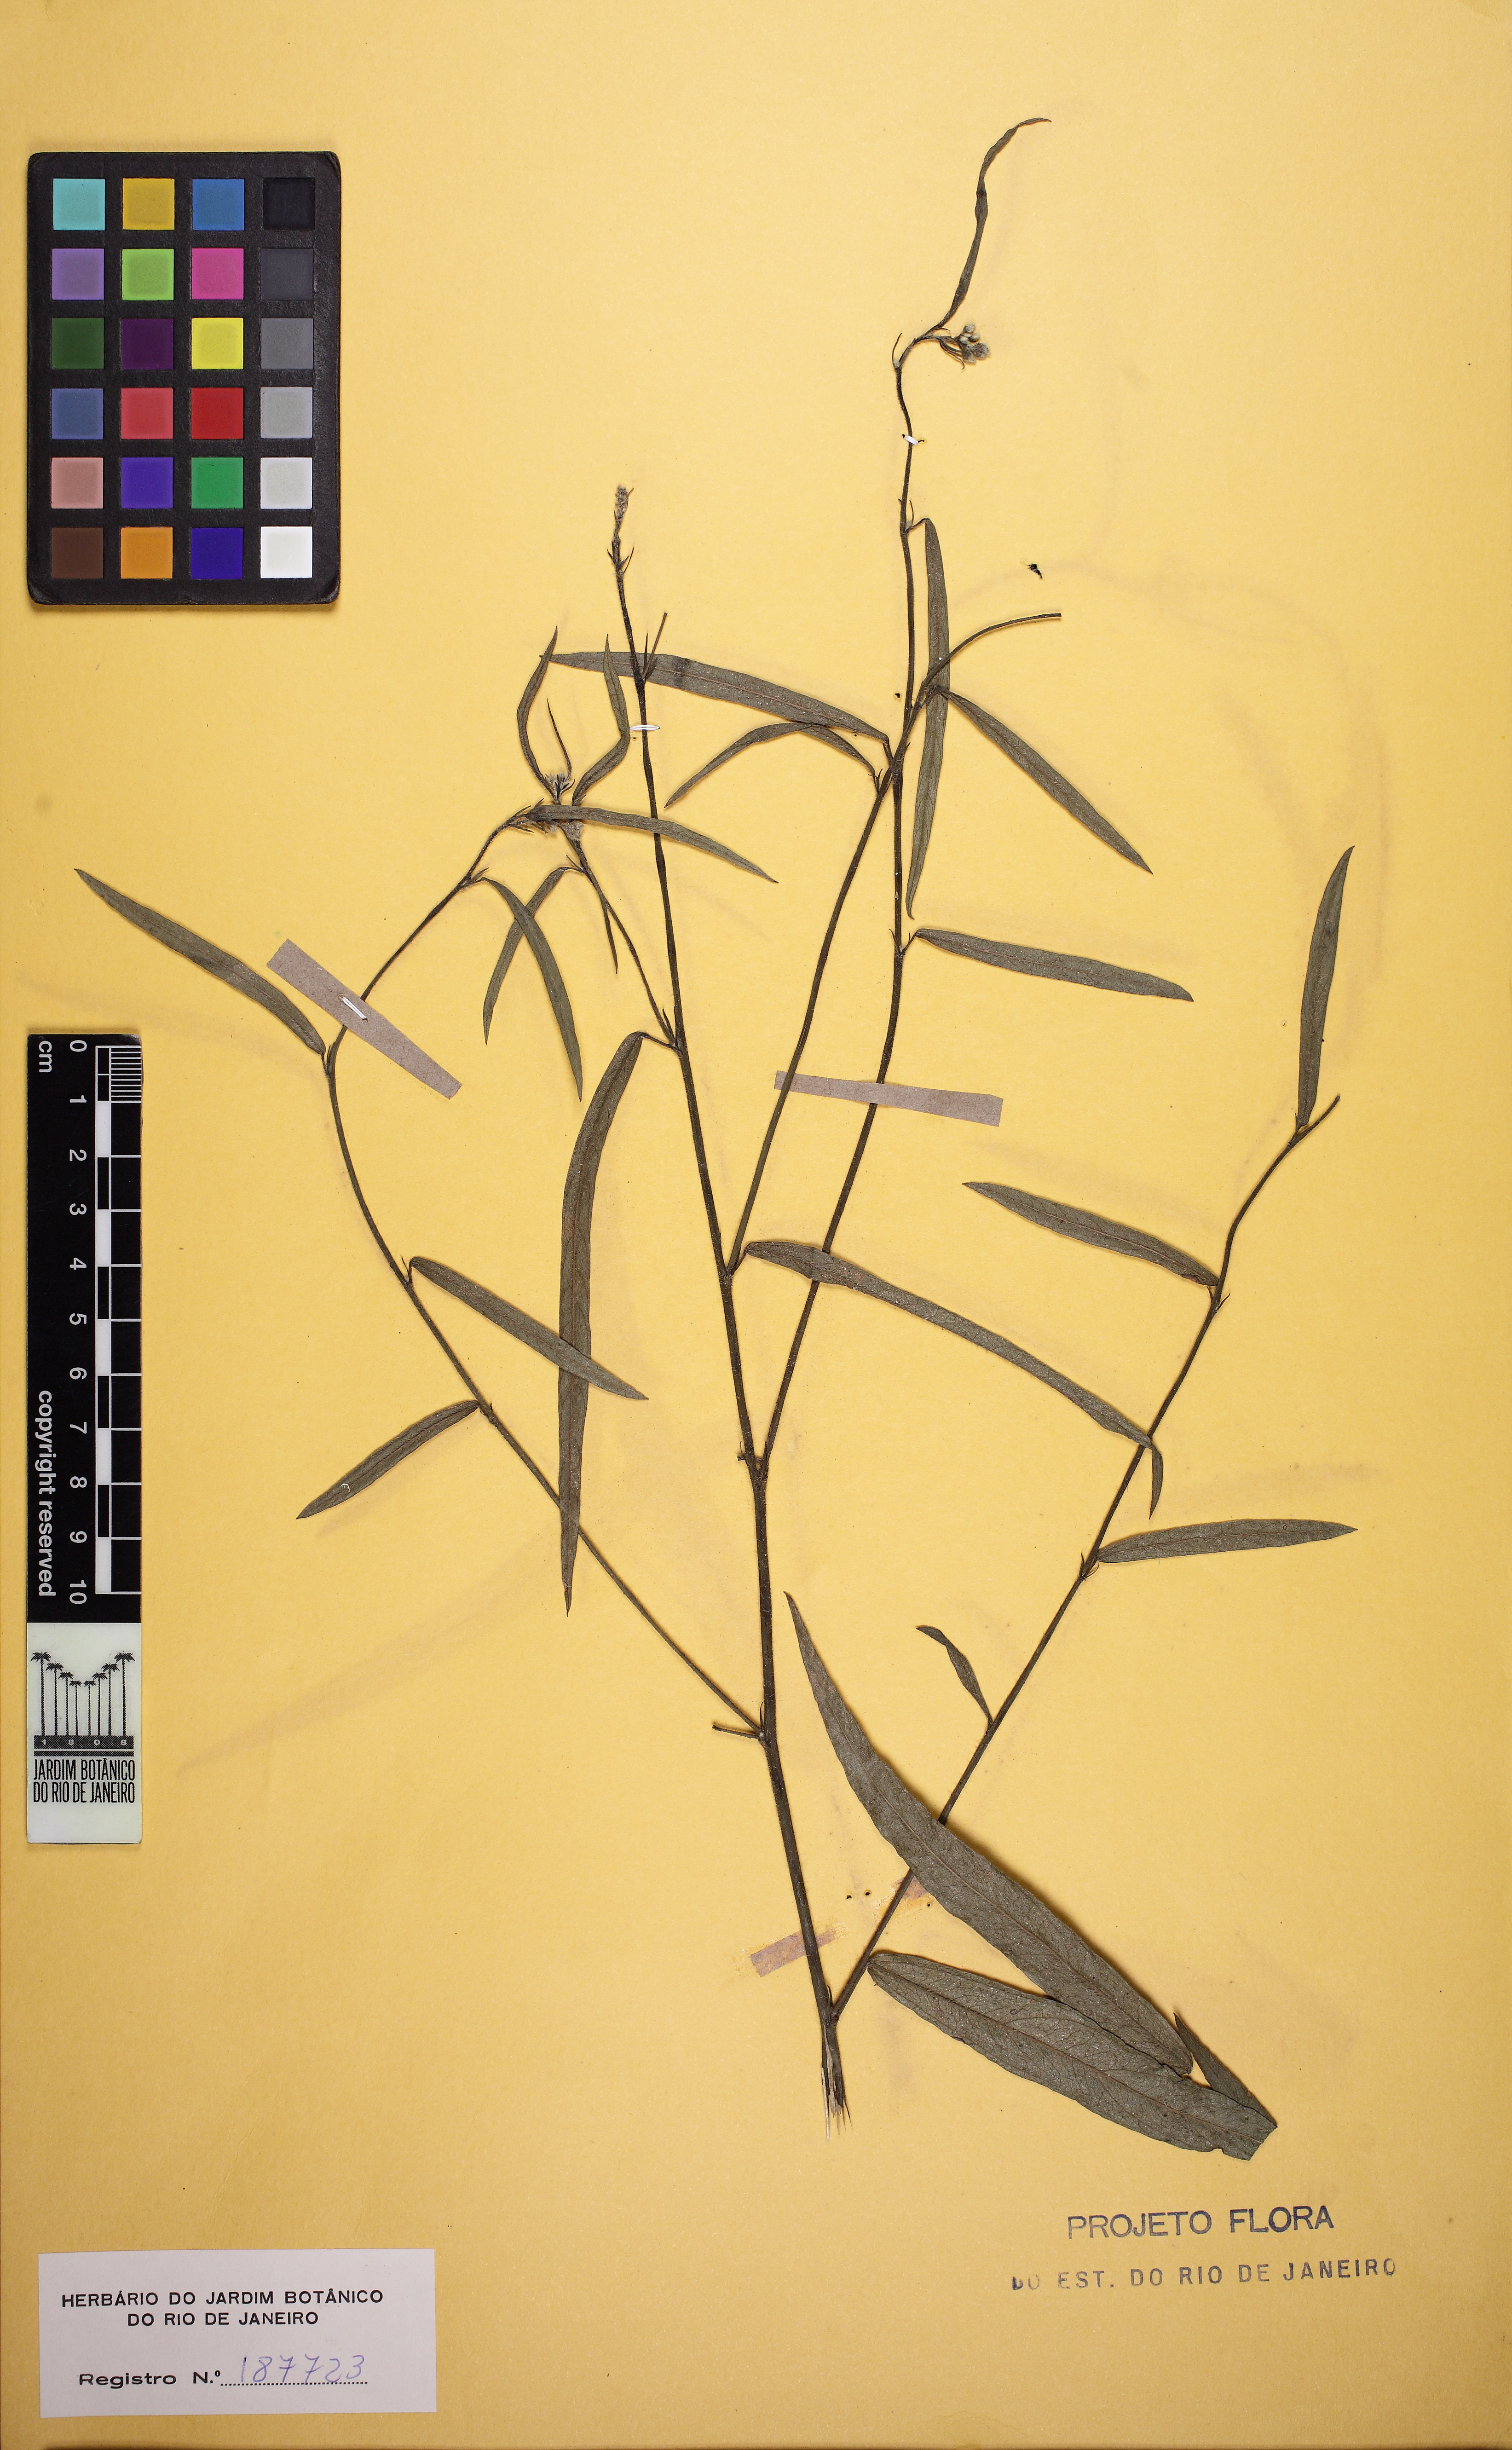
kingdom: Plantae
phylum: Tracheophyta
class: Magnoliopsida
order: Malvales
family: Malvaceae
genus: Sida
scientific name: Sida linifolia
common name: Flaxleaf fanpetals
